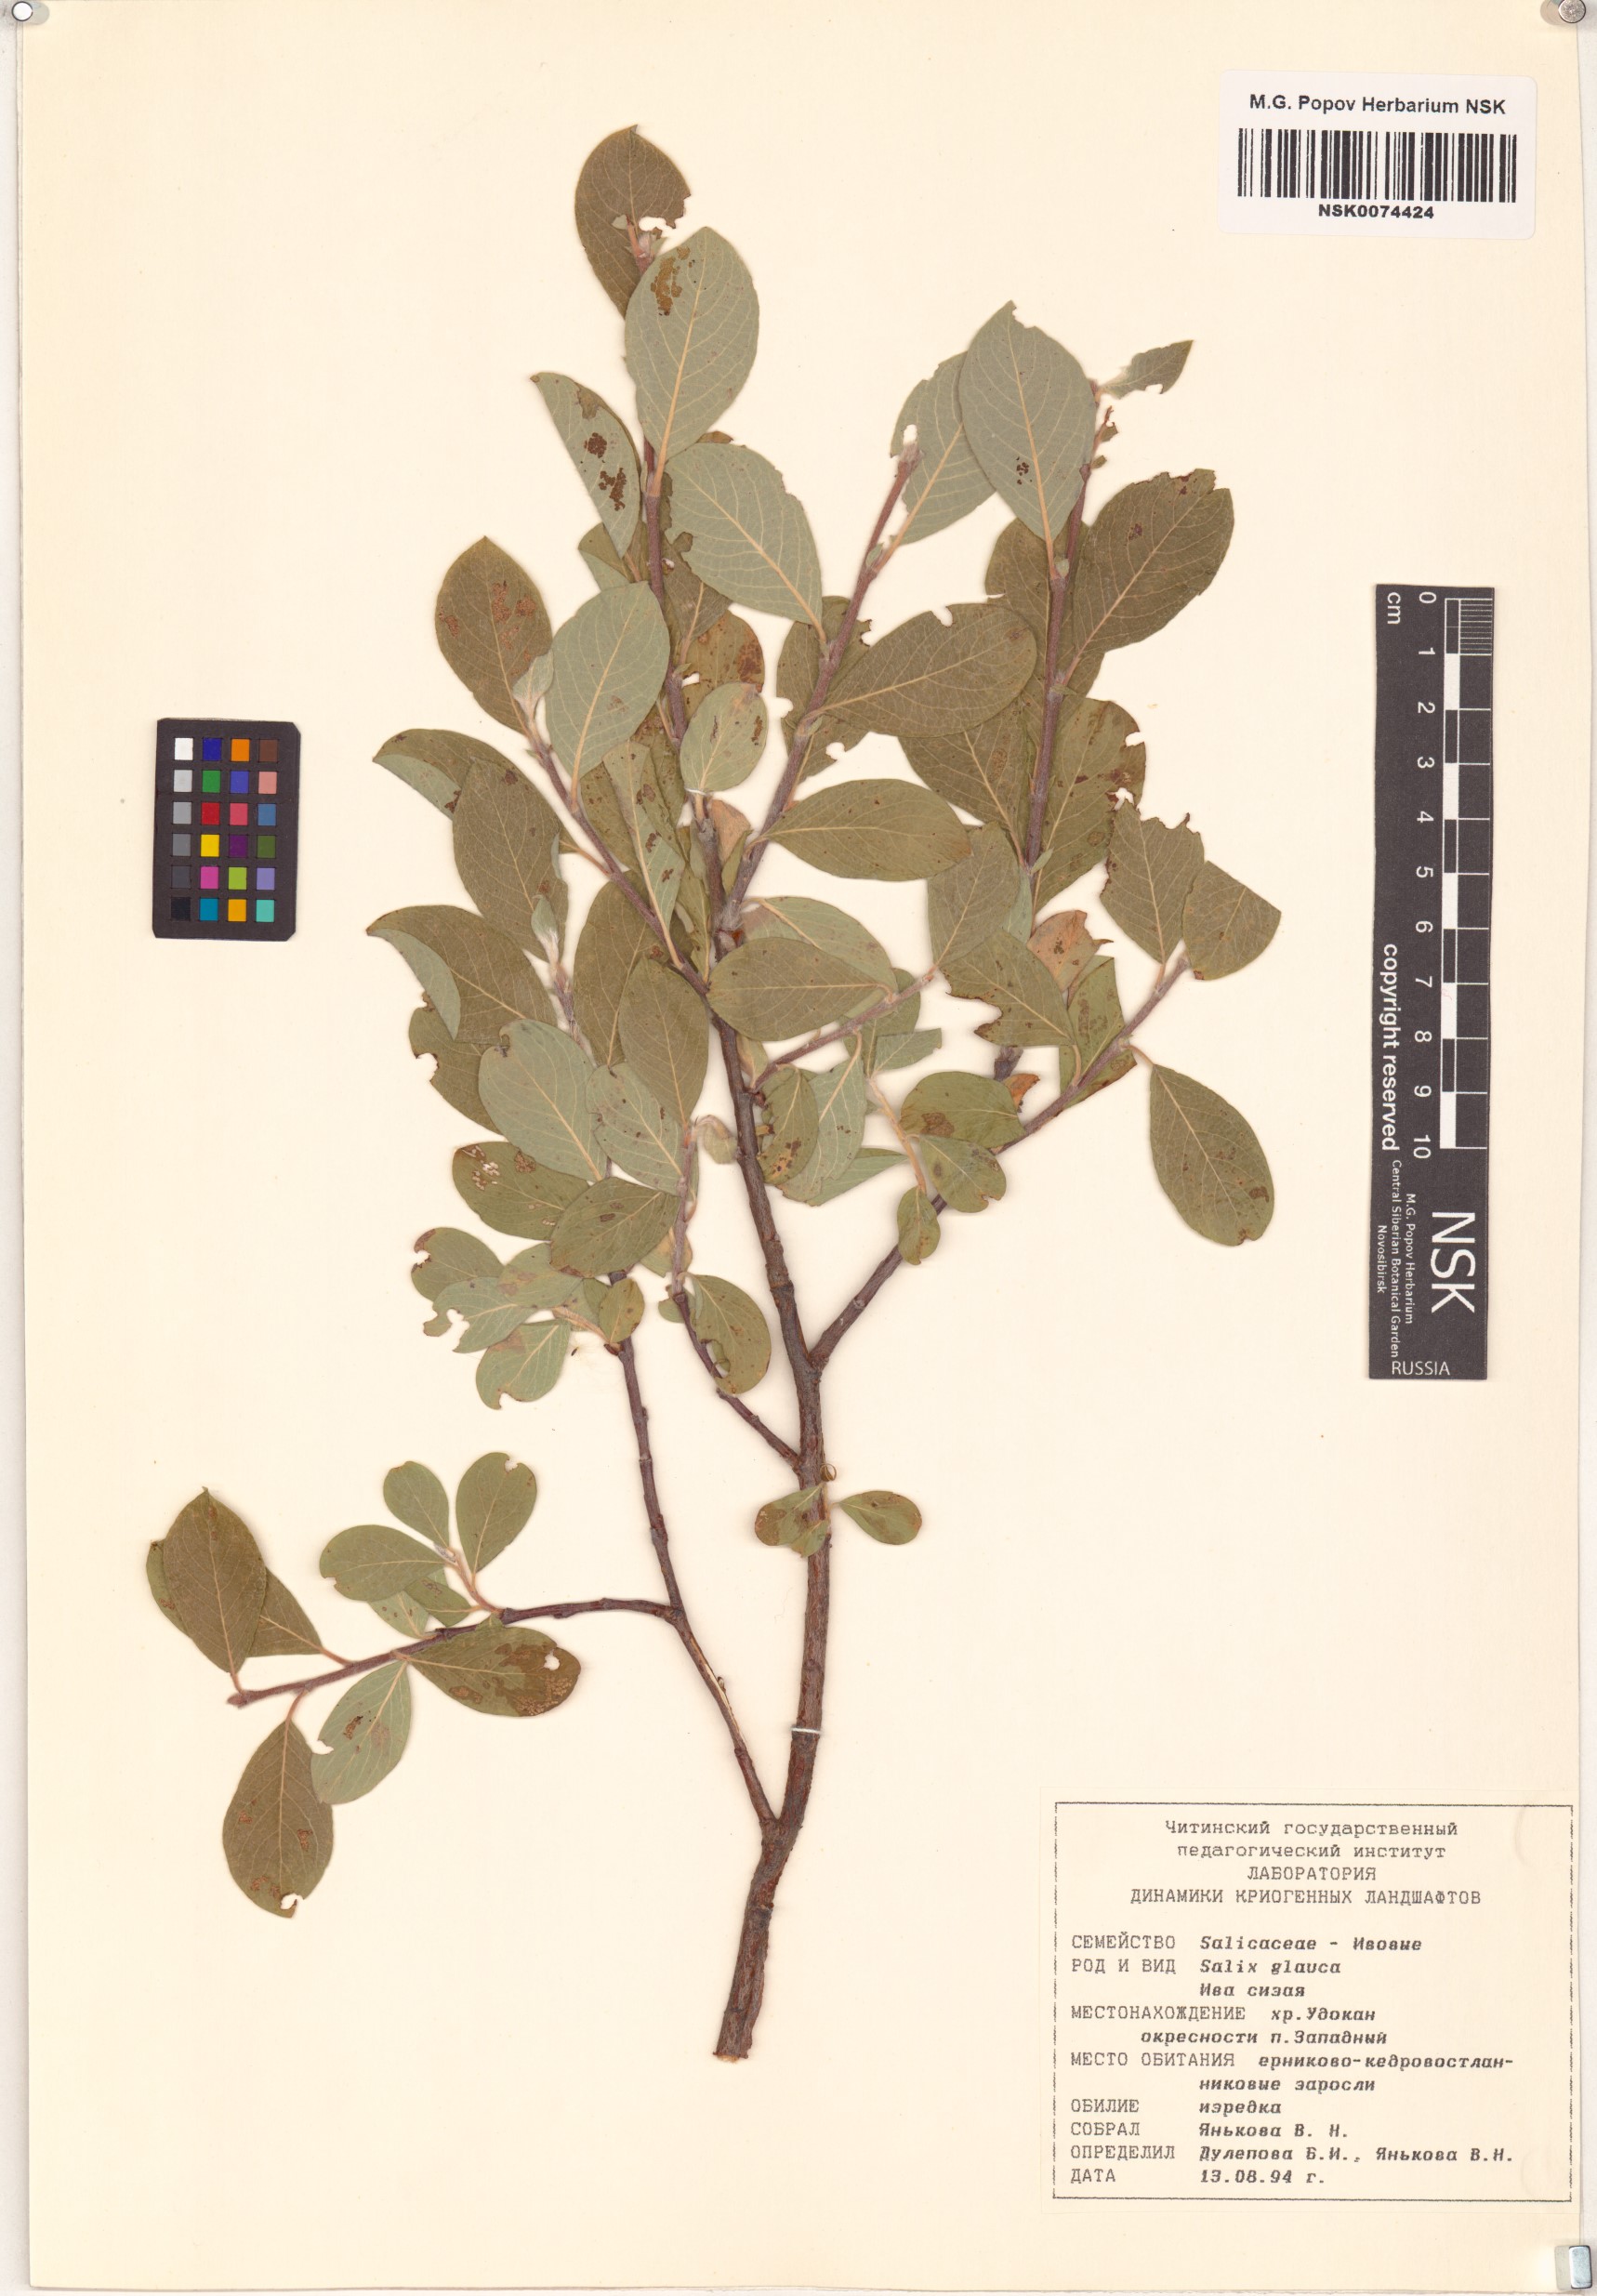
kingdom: Plantae
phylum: Tracheophyta
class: Magnoliopsida
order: Malpighiales
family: Salicaceae
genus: Salix
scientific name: Salix glauca
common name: Glaucous willow
